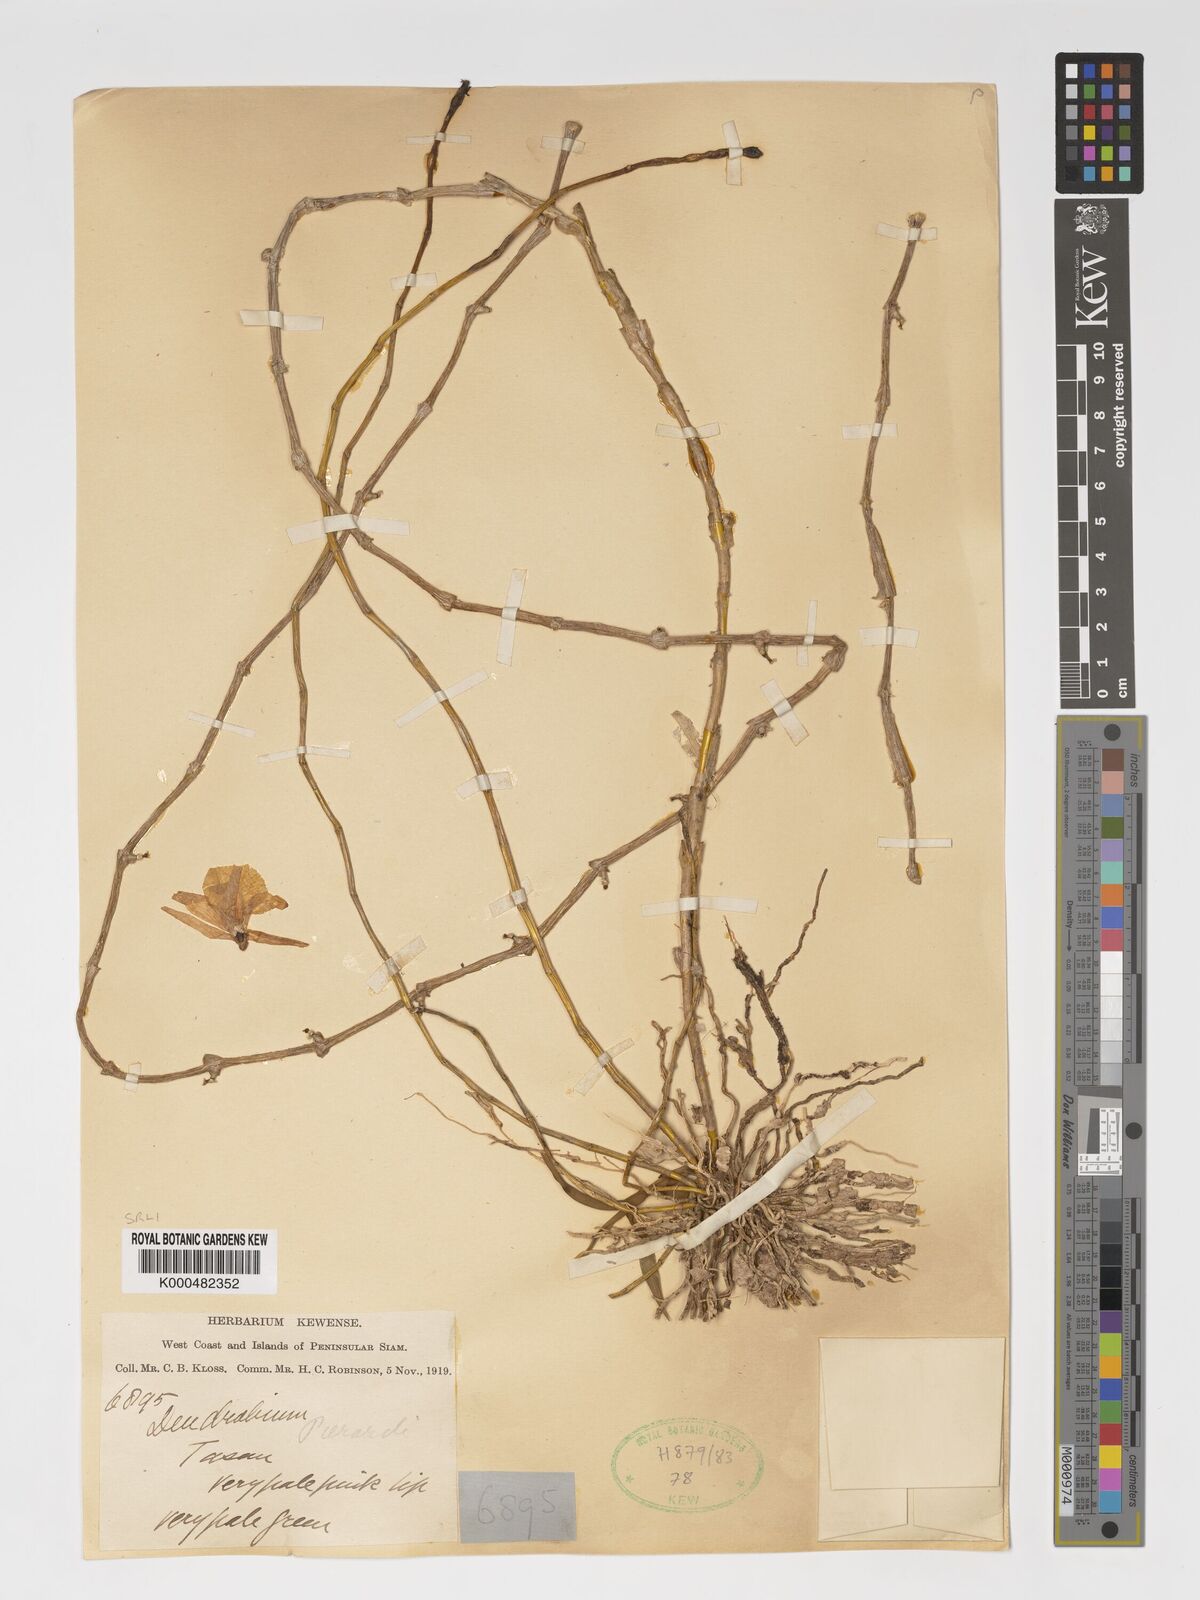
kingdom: Plantae
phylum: Tracheophyta
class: Liliopsida
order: Asparagales
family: Orchidaceae
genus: Dendrobium
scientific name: Dendrobium macrostachyum
